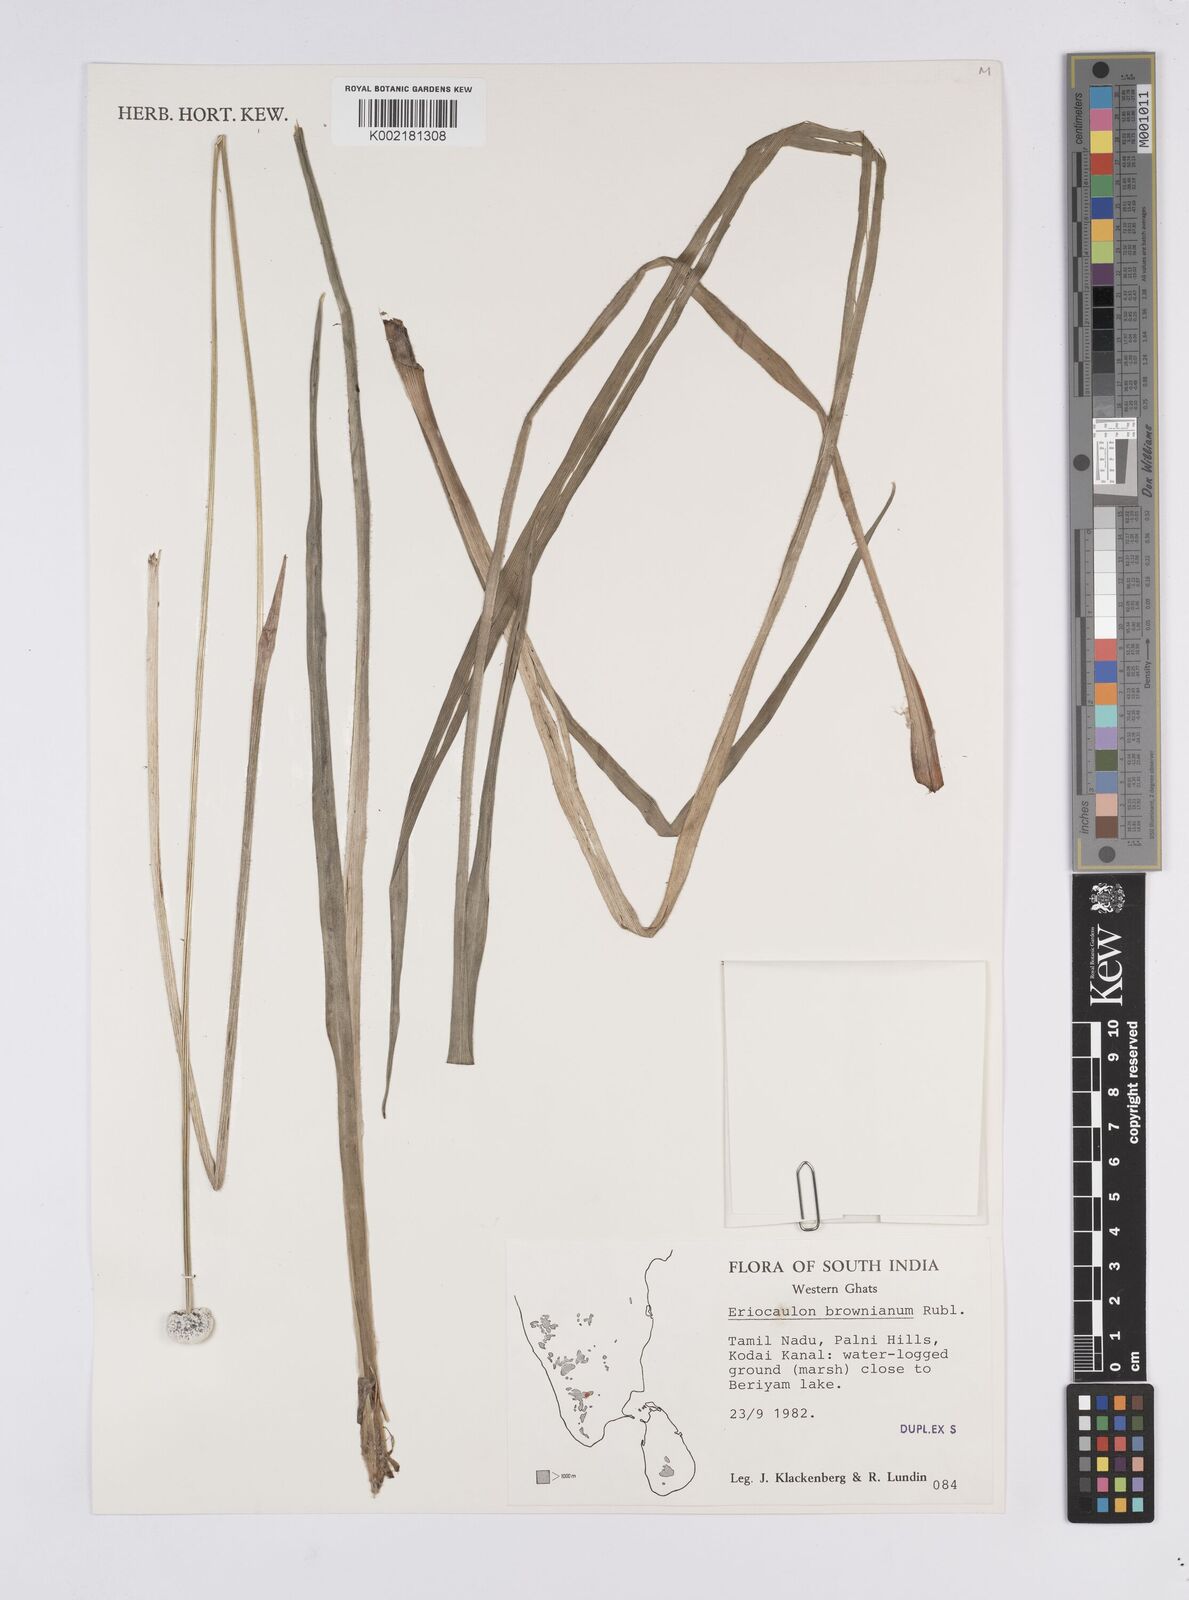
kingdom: Plantae
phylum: Tracheophyta
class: Liliopsida
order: Poales
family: Eriocaulaceae
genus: Eriocaulon
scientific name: Eriocaulon brownianum
